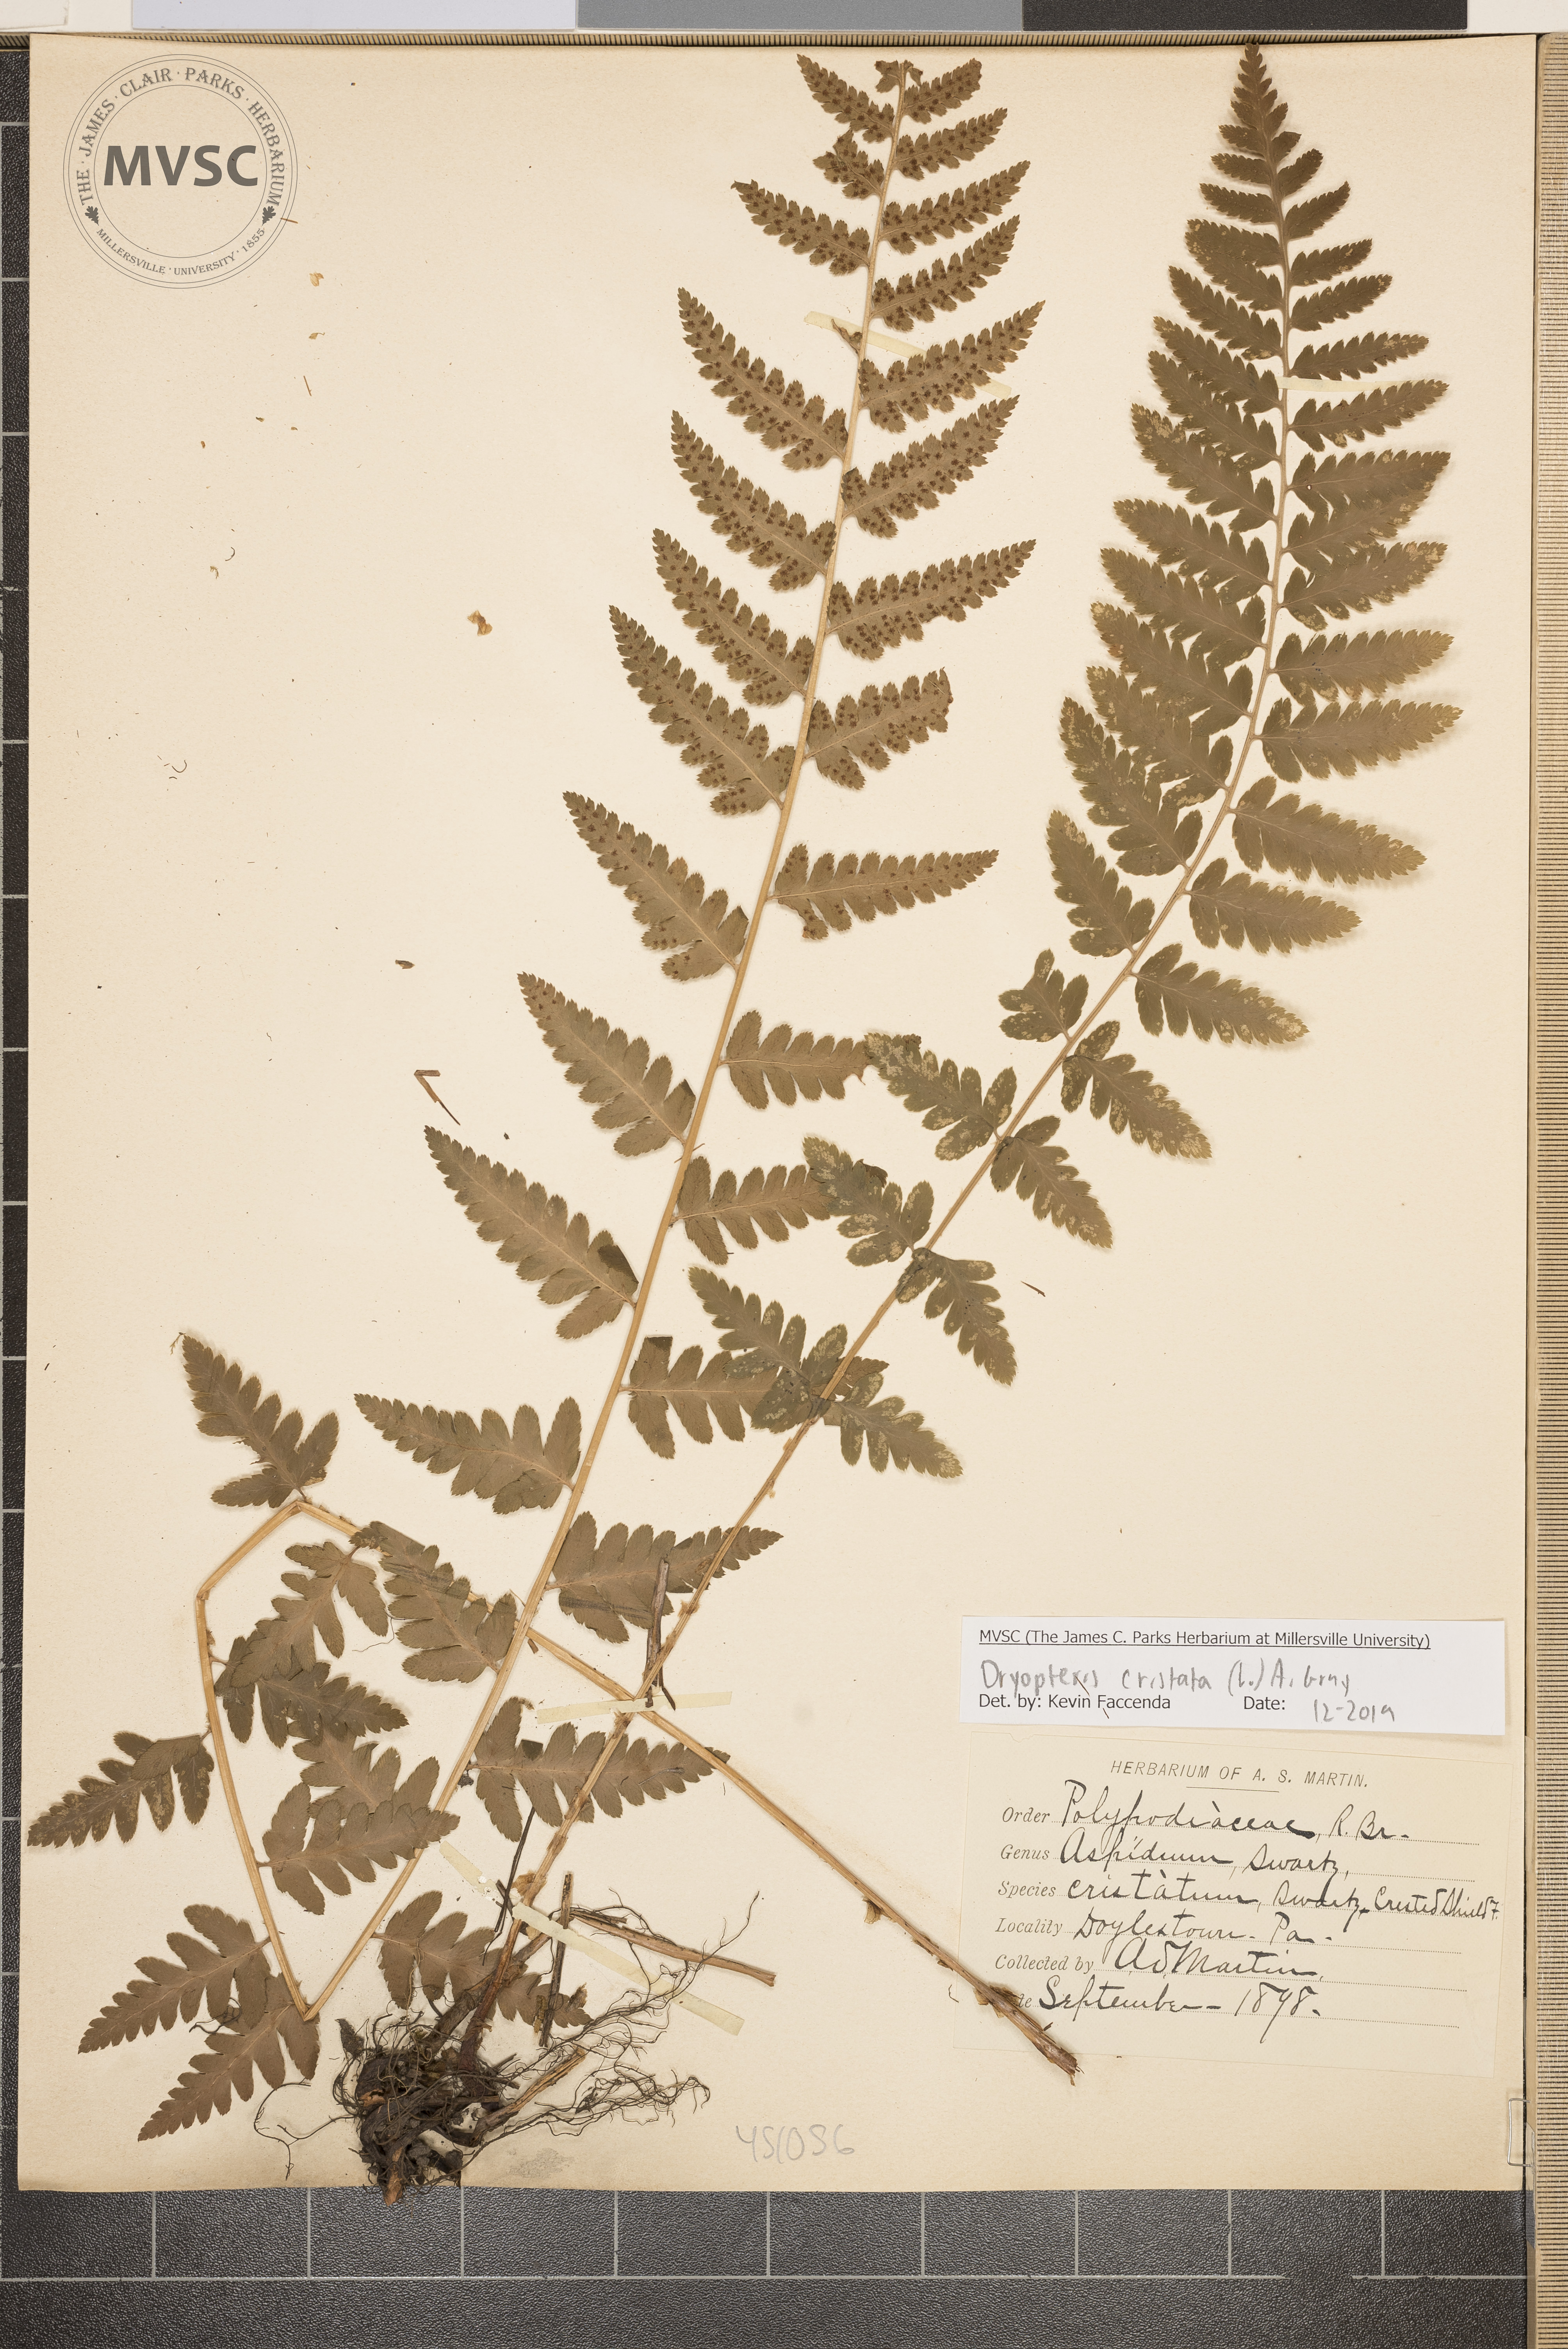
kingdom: Plantae
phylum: Tracheophyta
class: Polypodiopsida
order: Polypodiales
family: Dryopteridaceae
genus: Dryopteris
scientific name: Dryopteris cristata
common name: Crested Shield Fern
